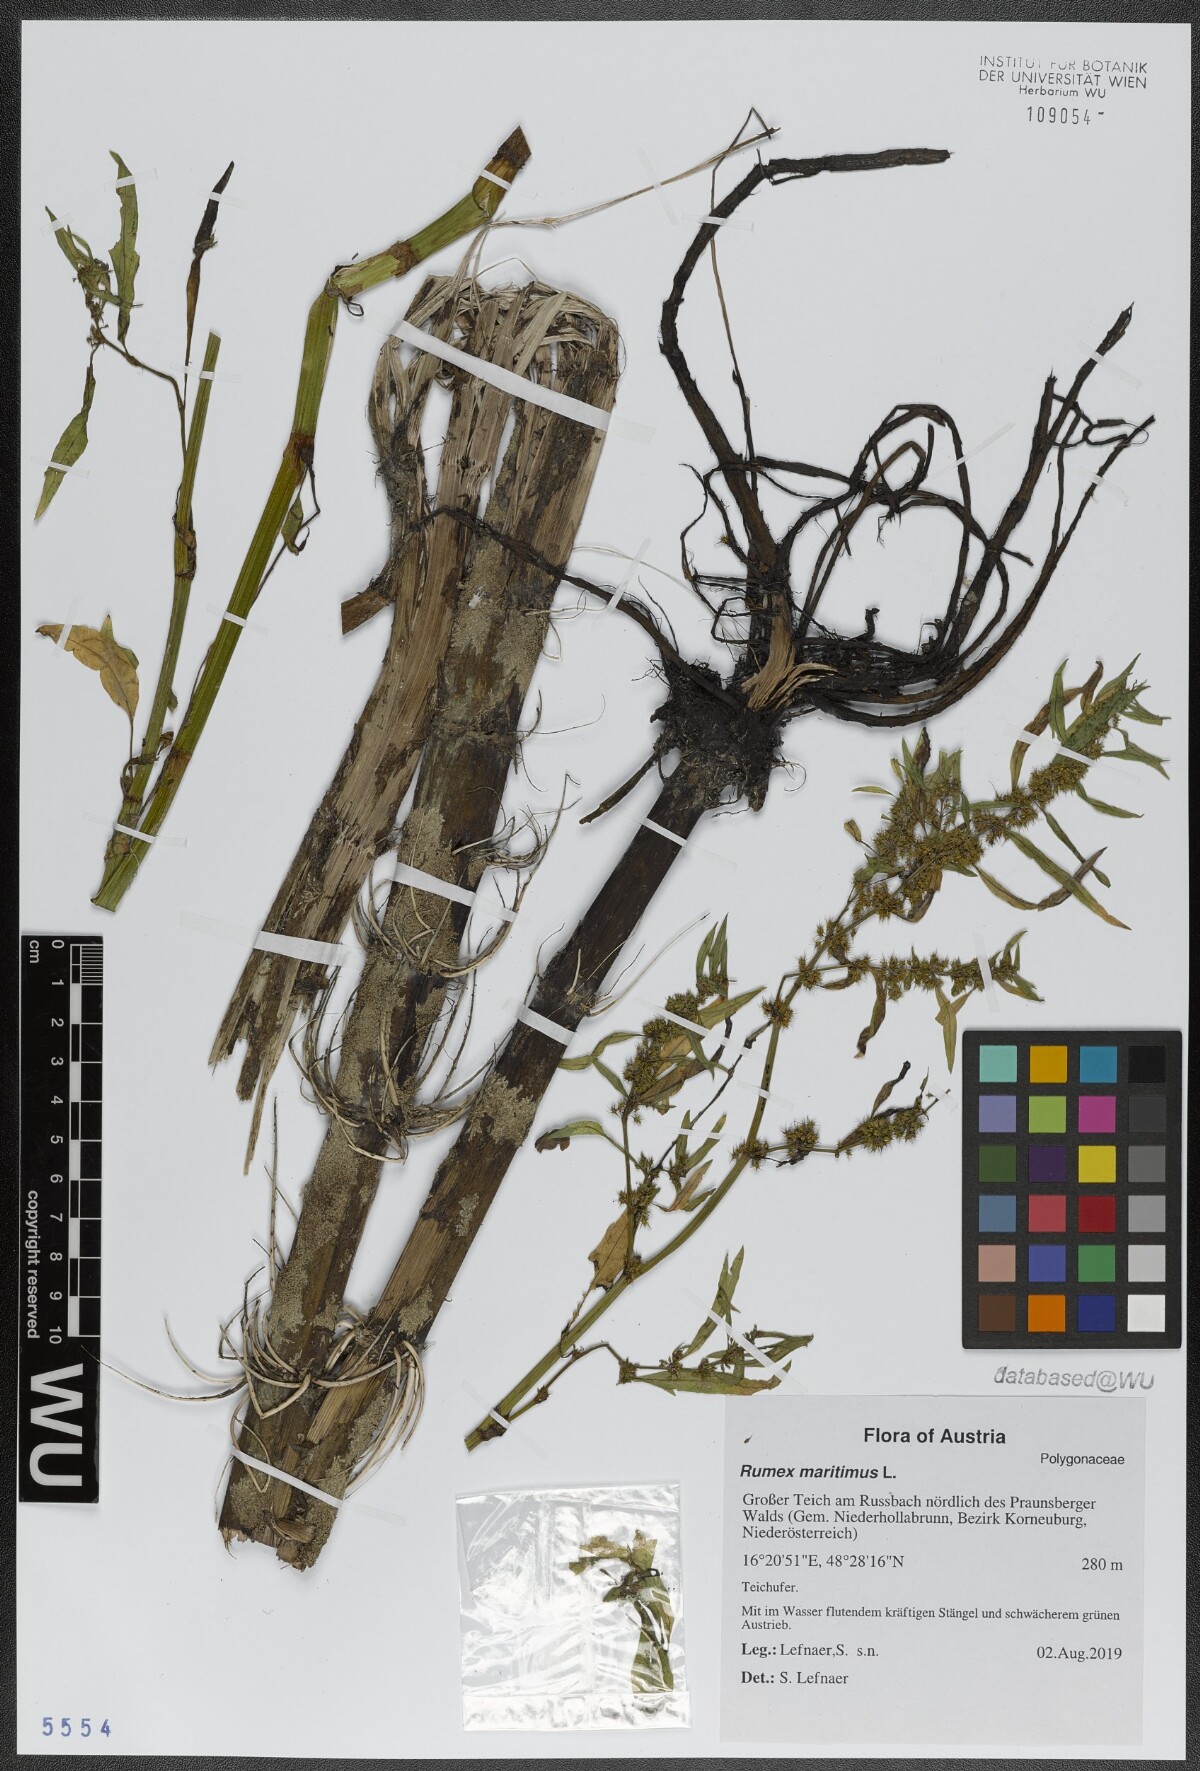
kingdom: Plantae
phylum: Tracheophyta
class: Magnoliopsida
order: Caryophyllales
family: Polygonaceae
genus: Rumex
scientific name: Rumex maritimus
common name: Golden dock
